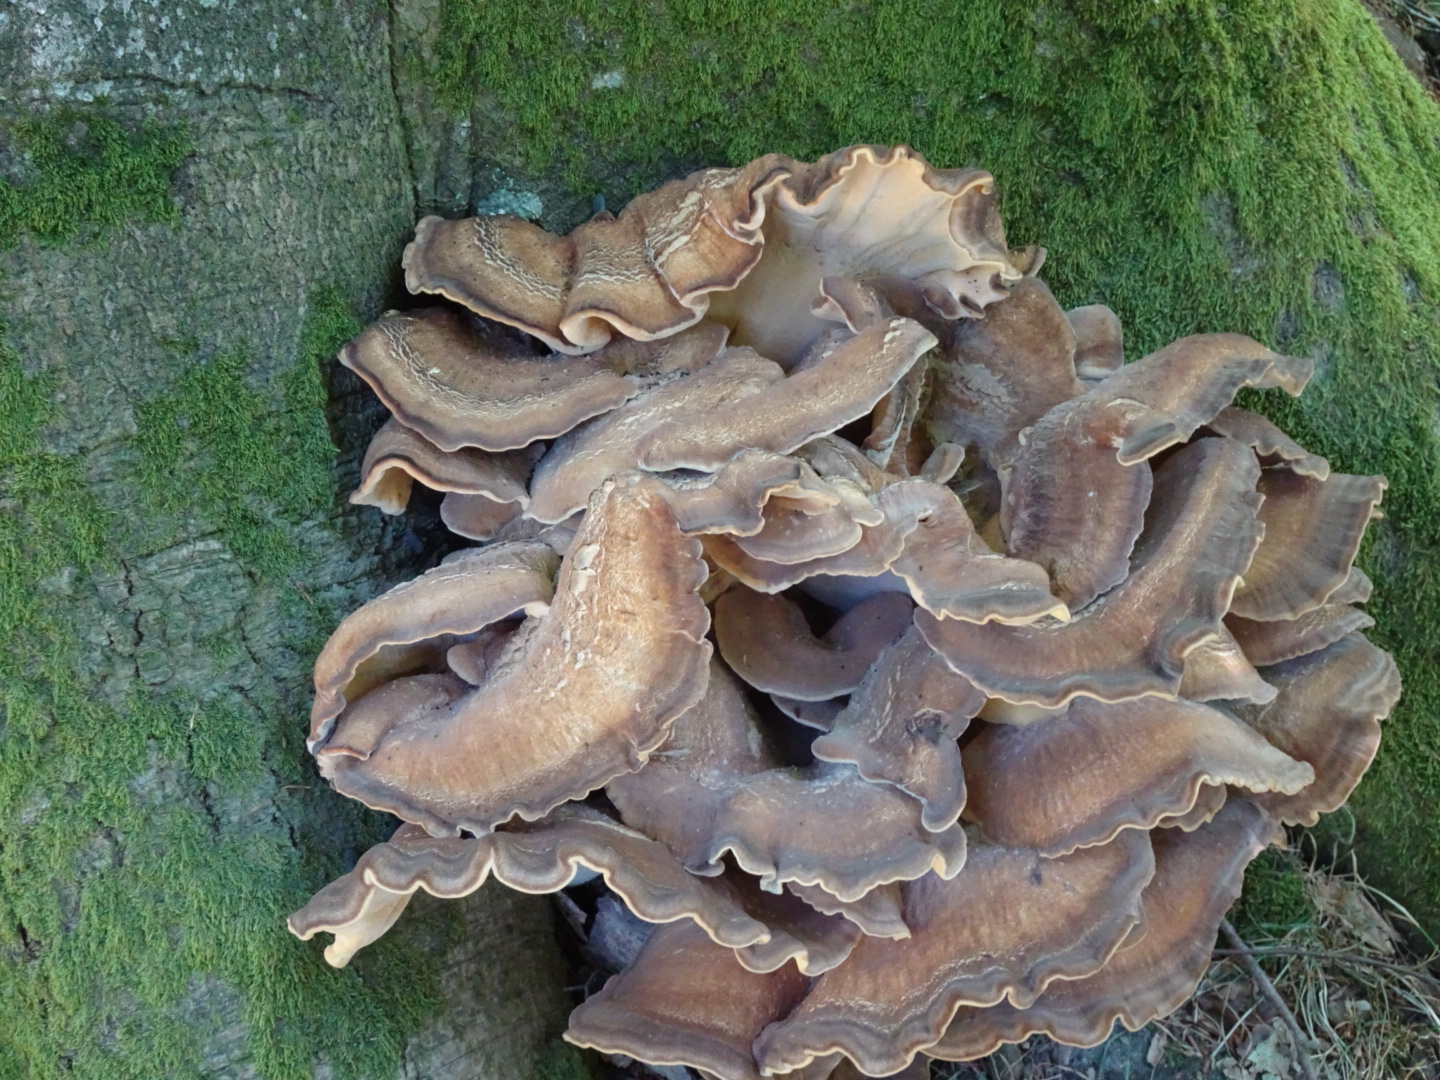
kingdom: Fungi
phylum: Basidiomycota
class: Agaricomycetes
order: Polyporales
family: Meripilaceae
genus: Meripilus
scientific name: Meripilus giganteus
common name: kæmpeporesvamp
